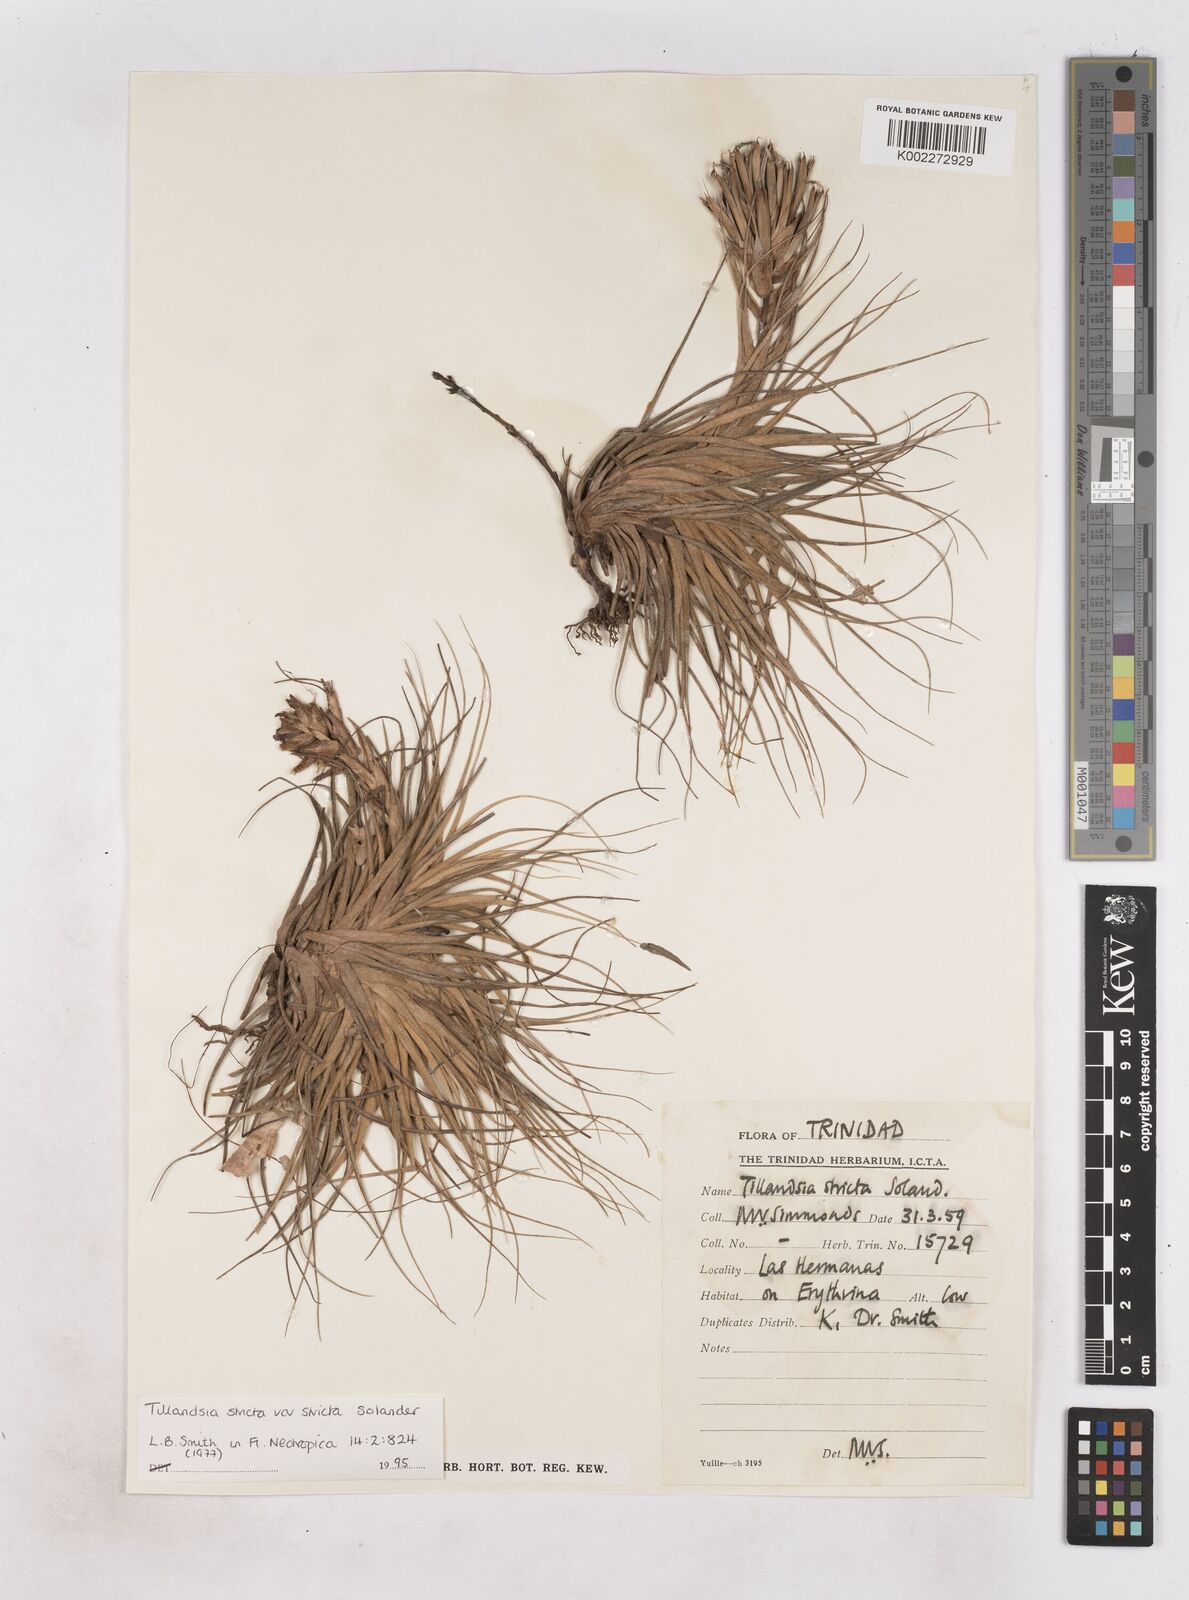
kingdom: Plantae
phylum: Tracheophyta
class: Liliopsida
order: Poales
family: Bromeliaceae
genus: Tillandsia
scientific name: Tillandsia
